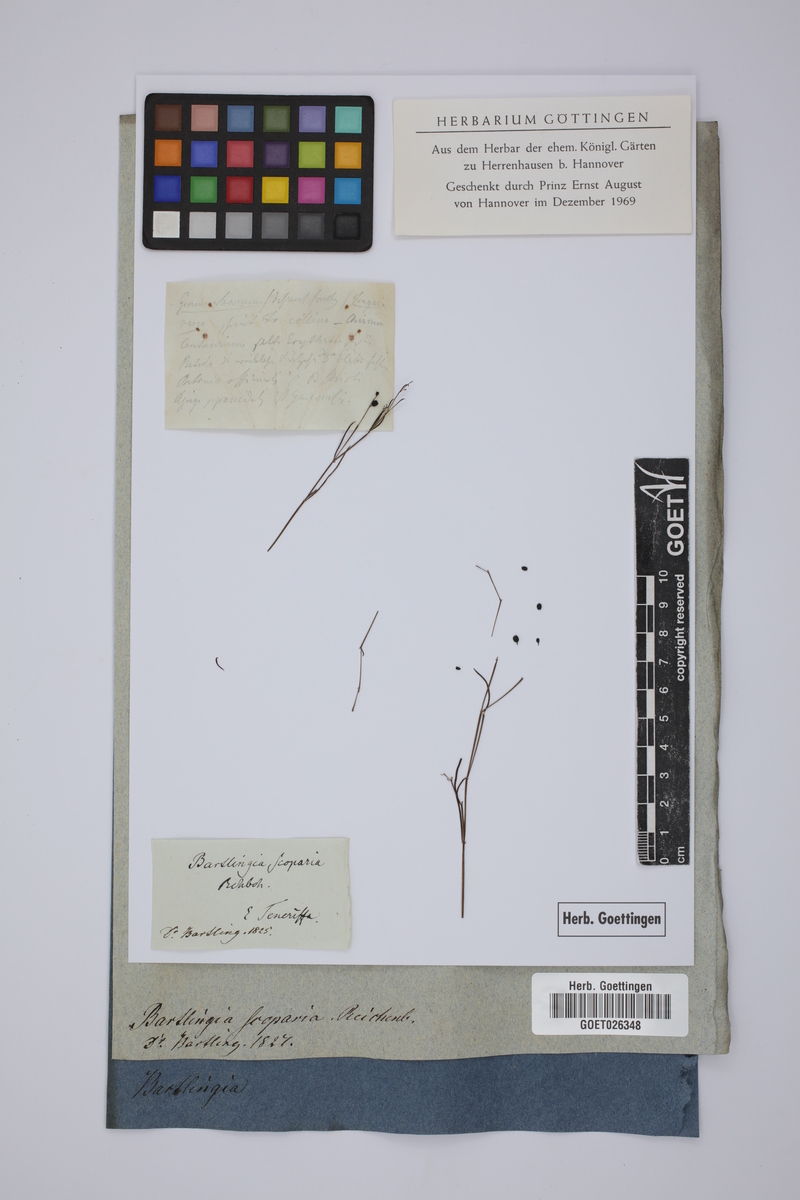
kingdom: Plantae
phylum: Tracheophyta
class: Magnoliopsida
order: Gentianales
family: Rubiaceae
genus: Plocama
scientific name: Plocama pendula
